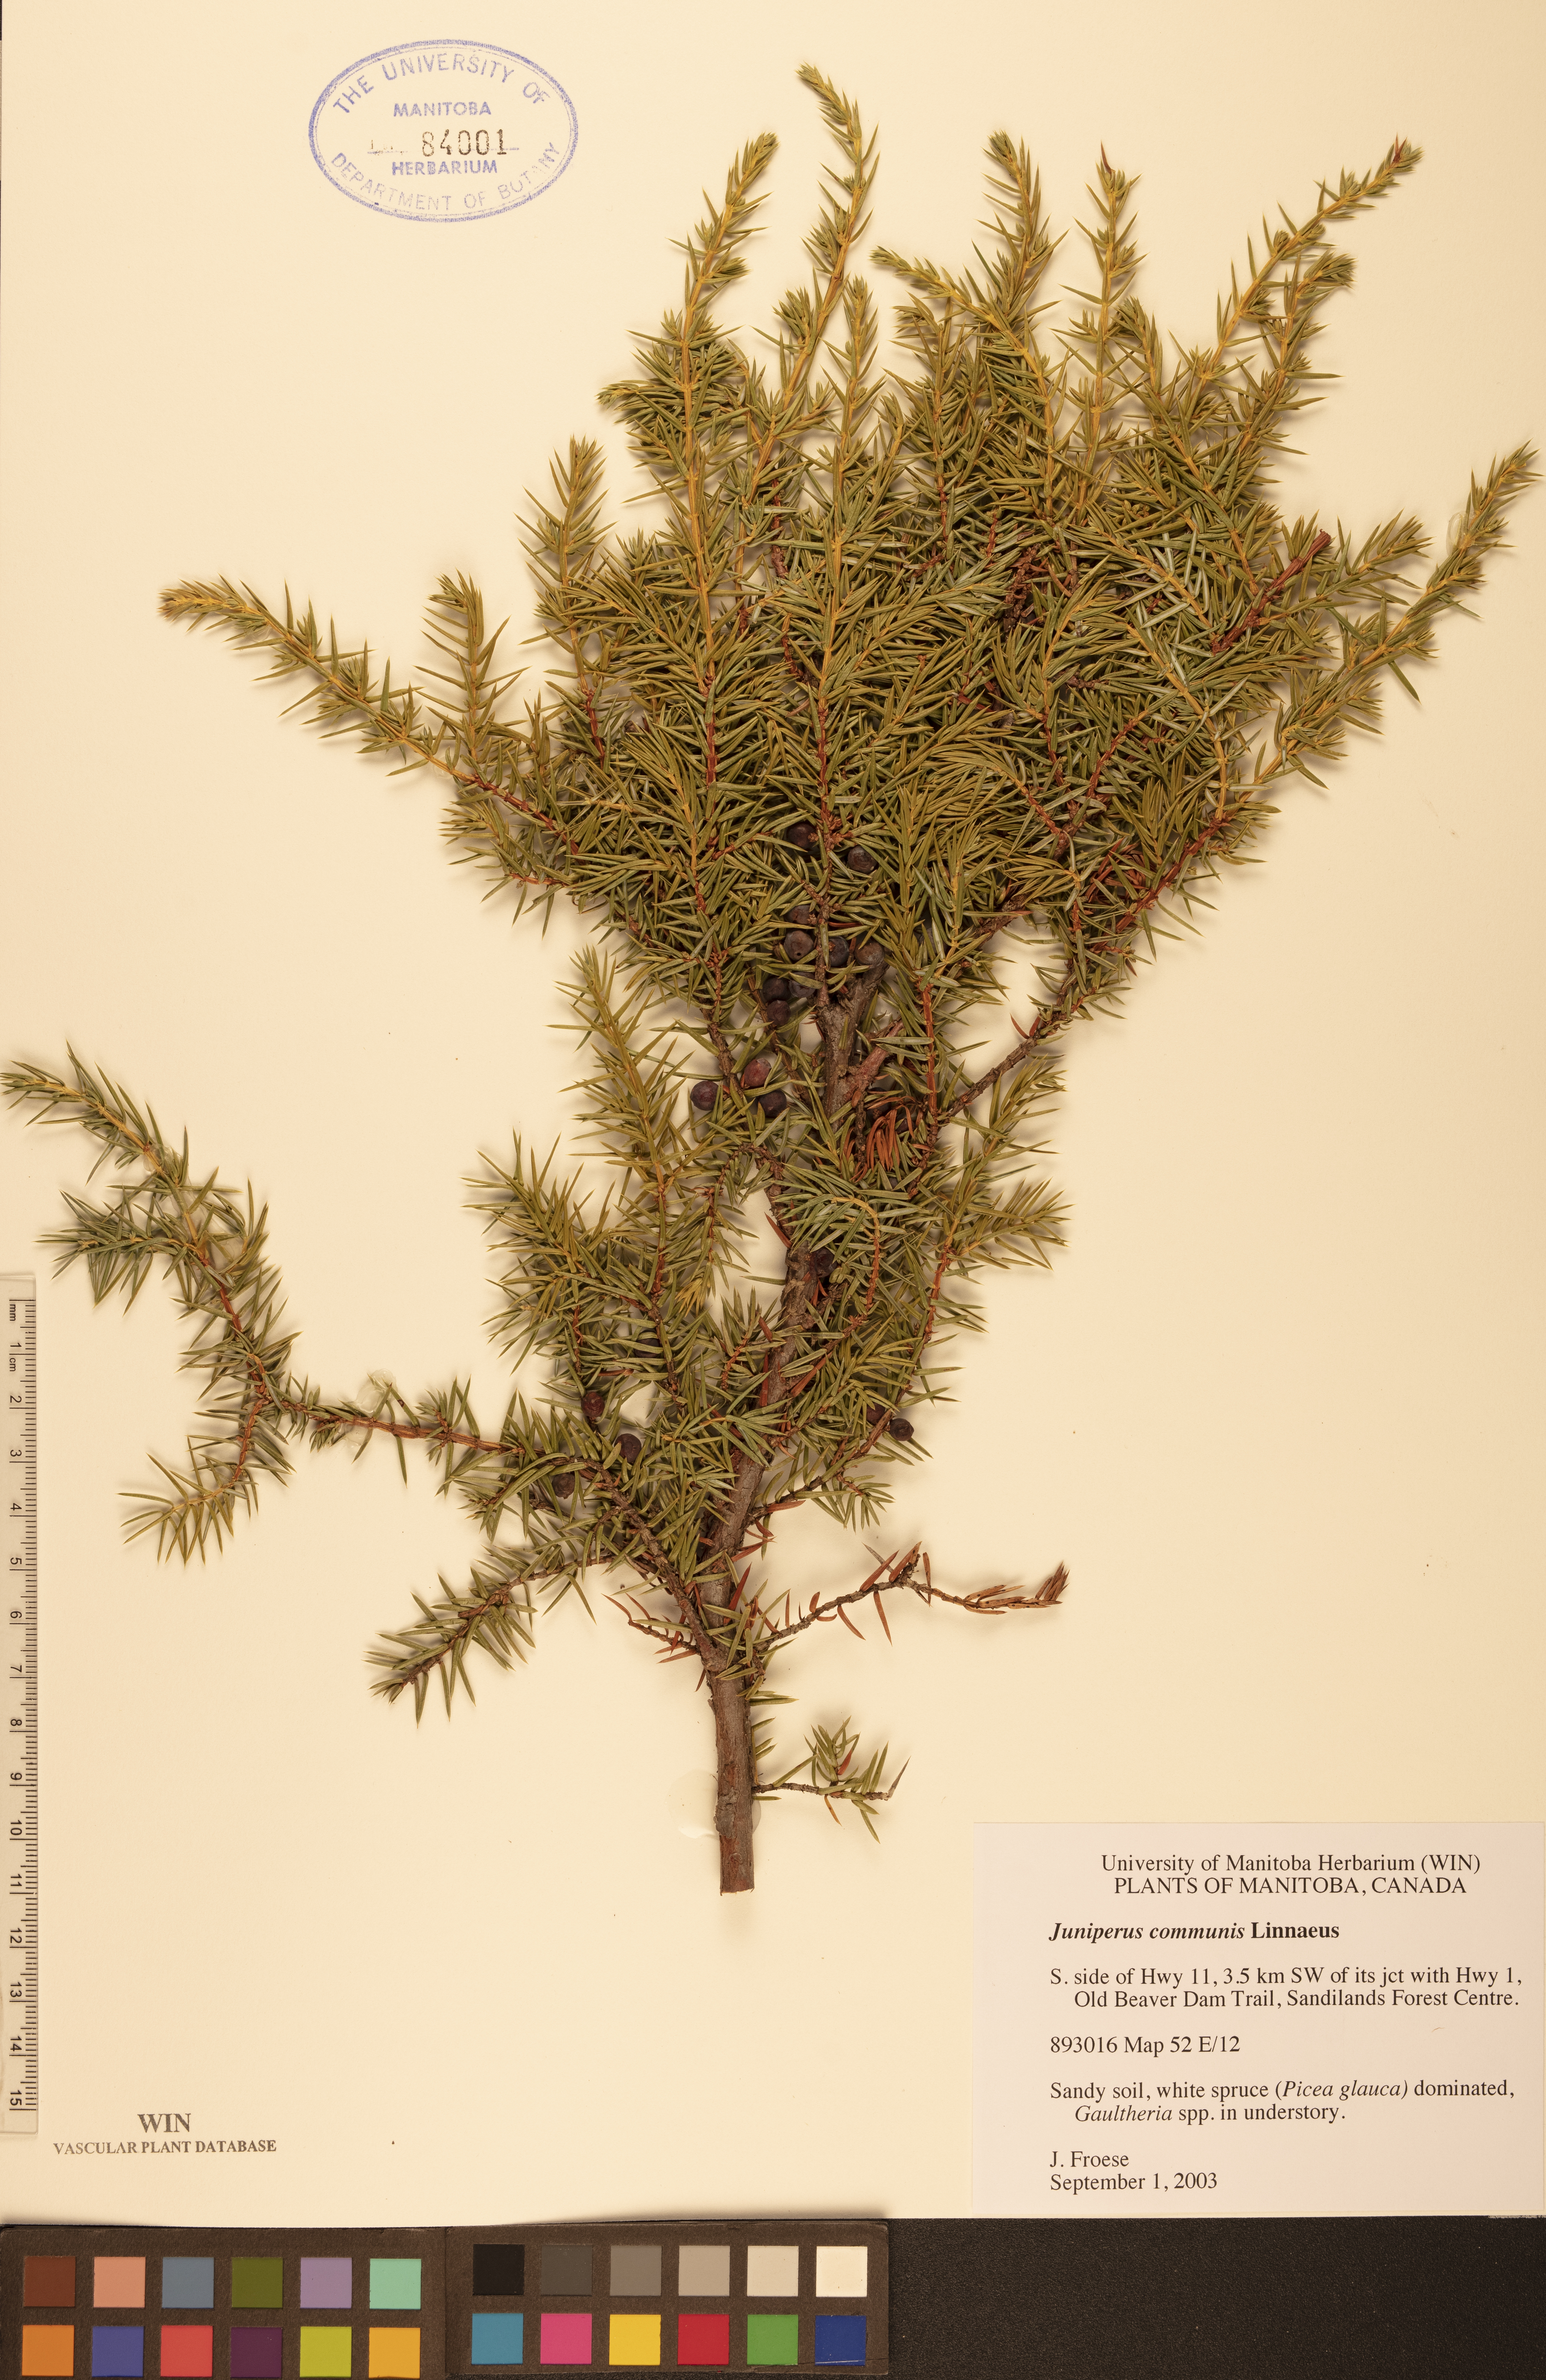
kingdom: Plantae
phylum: Tracheophyta
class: Pinopsida
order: Pinales
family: Cupressaceae
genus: Juniperus
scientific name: Juniperus communis
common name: Common juniper
